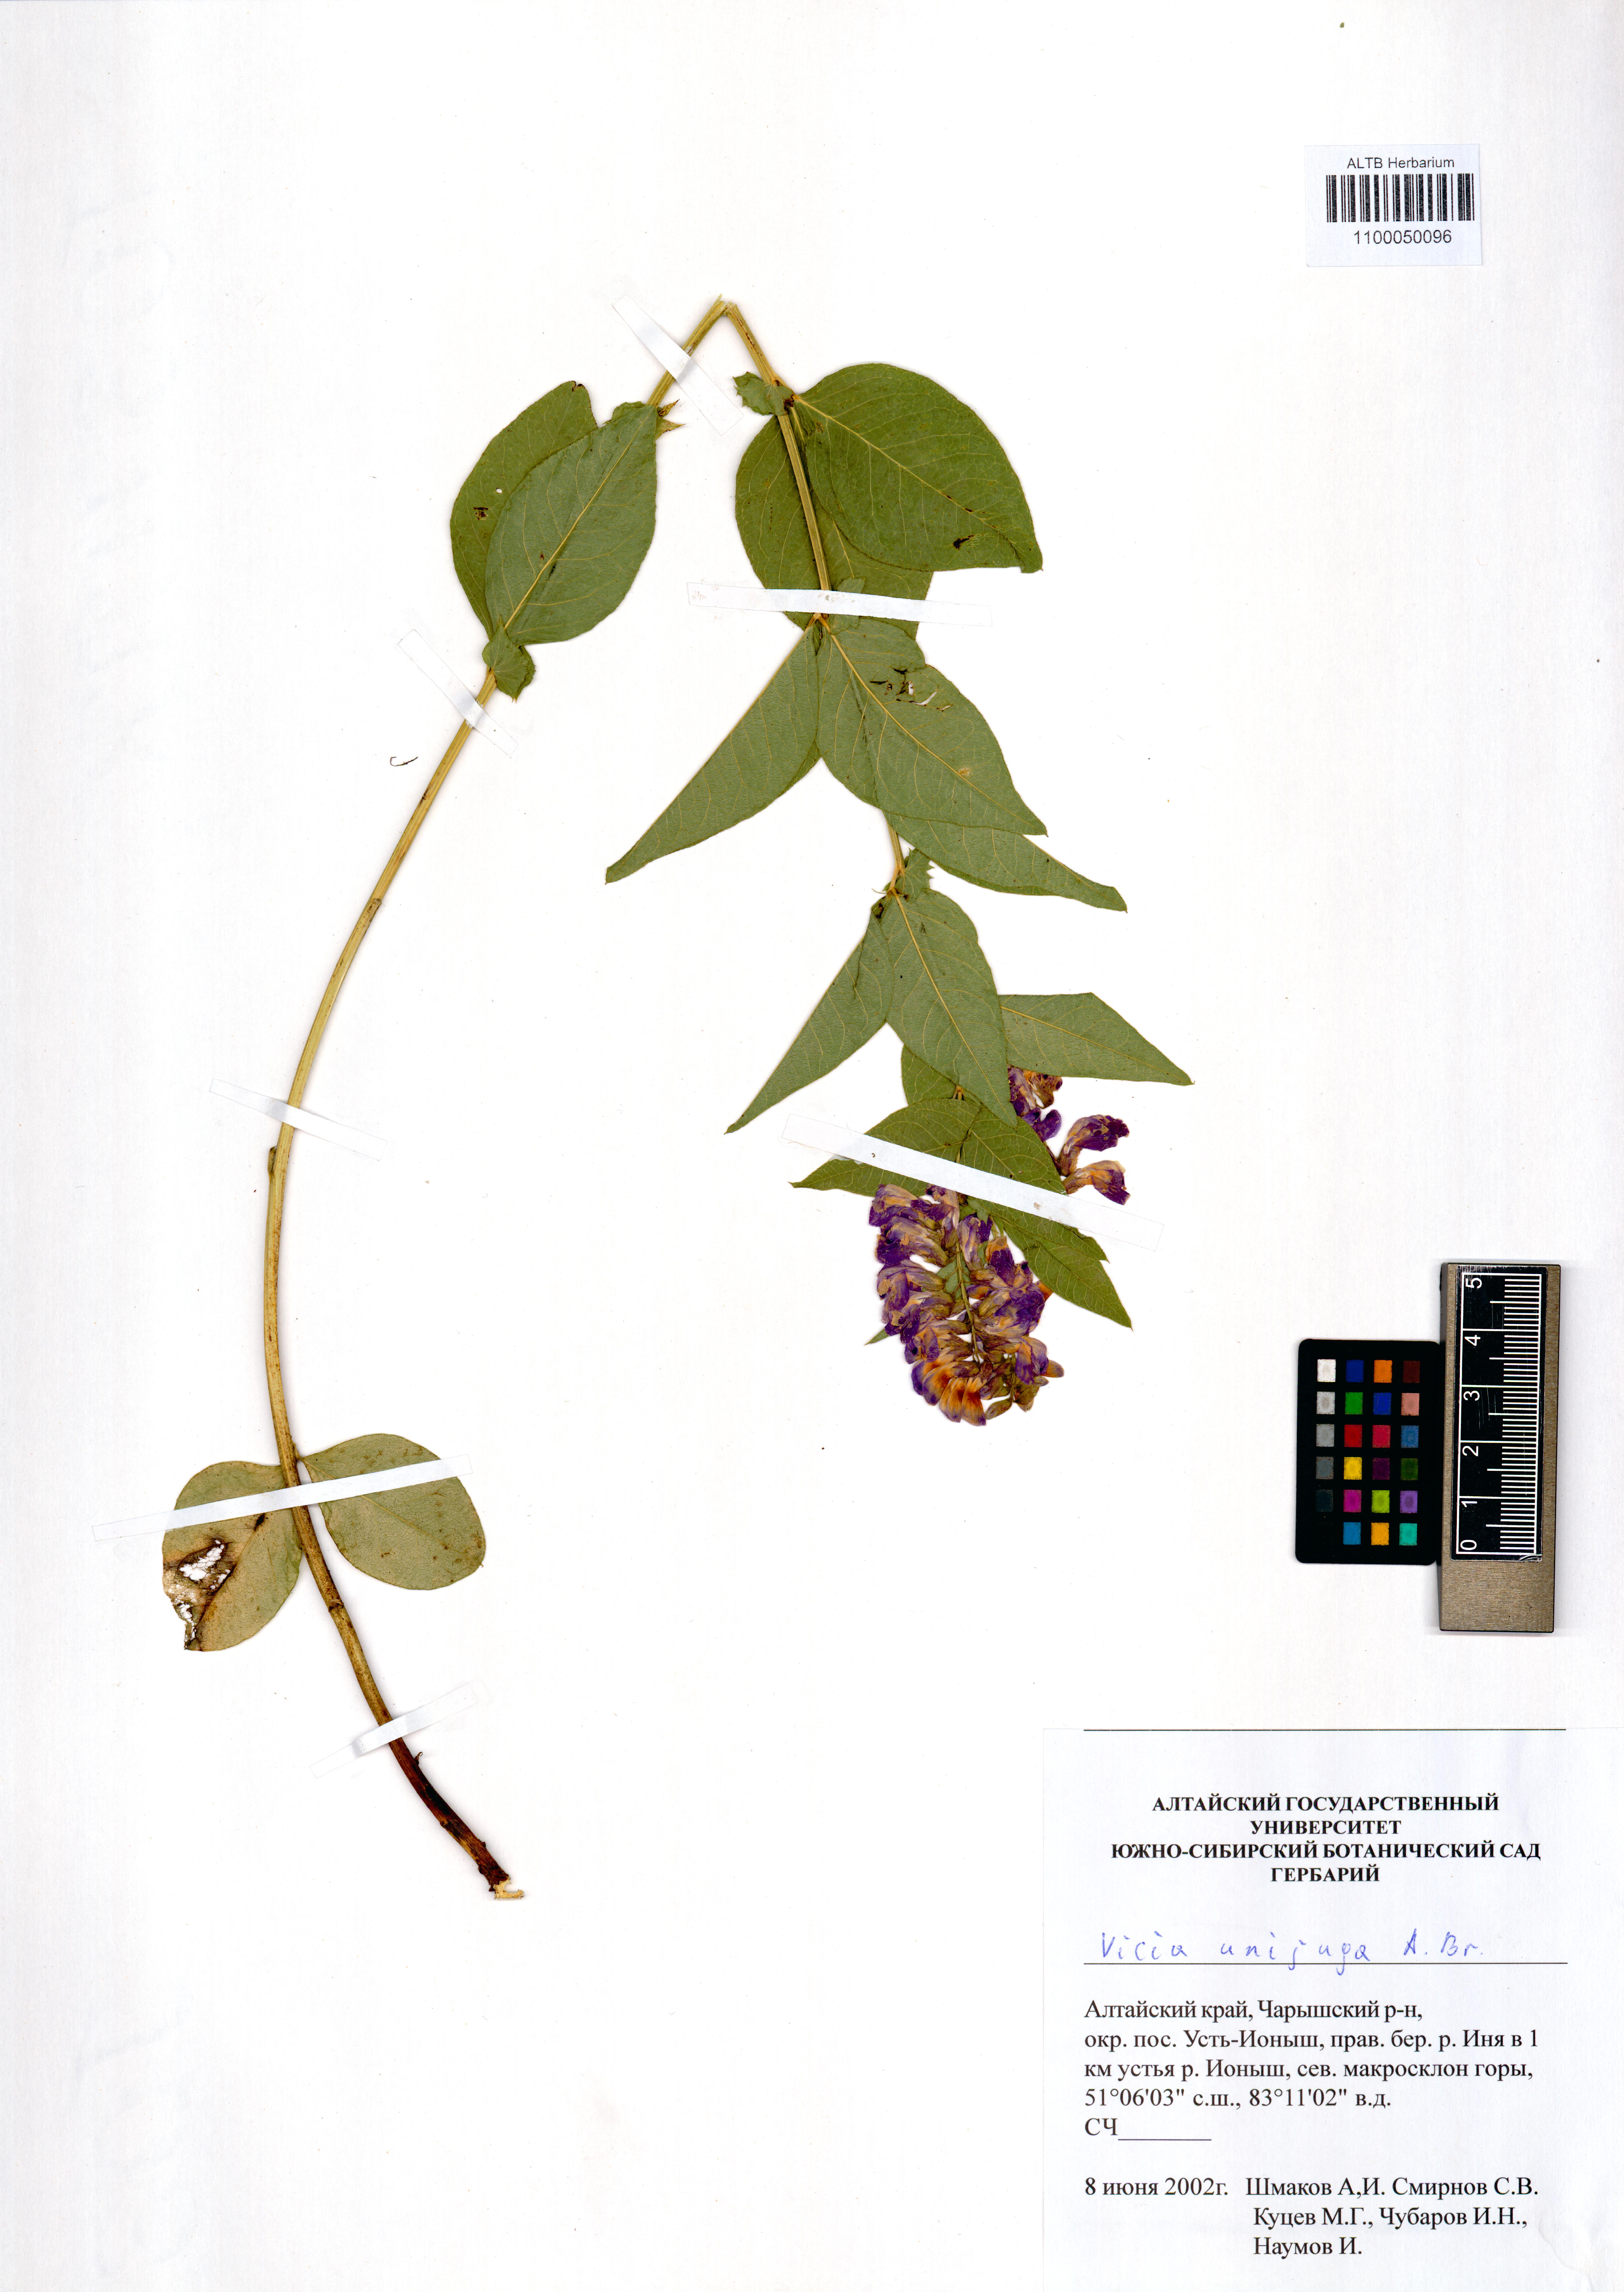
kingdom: Plantae
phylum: Tracheophyta
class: Magnoliopsida
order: Fabales
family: Fabaceae
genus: Vicia
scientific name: Vicia unijuga
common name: Two-leaf vetch
